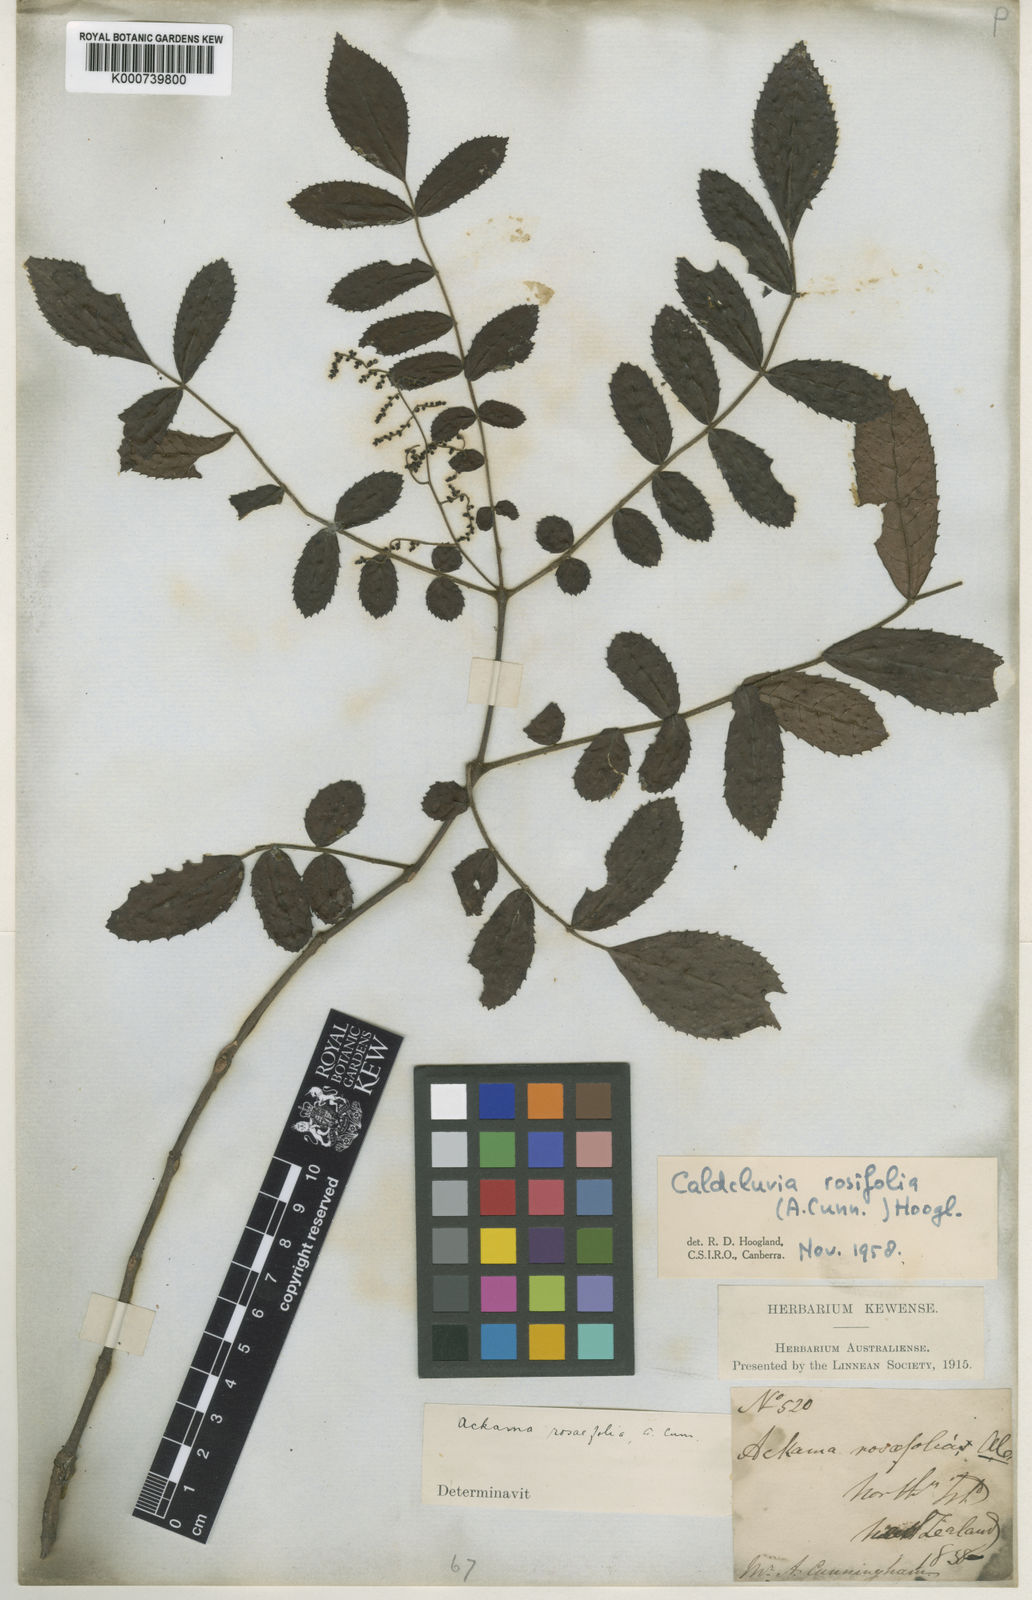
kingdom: Plantae
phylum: Tracheophyta
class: Magnoliopsida
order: Oxalidales
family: Cunoniaceae
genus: Ackama
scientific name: Ackama rosifolia
